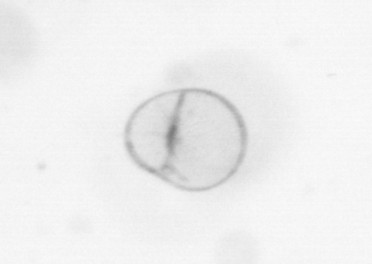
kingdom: Chromista
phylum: Myzozoa
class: Dinophyceae
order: Noctilucales
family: Noctilucaceae
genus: Noctiluca
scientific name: Noctiluca scintillans
